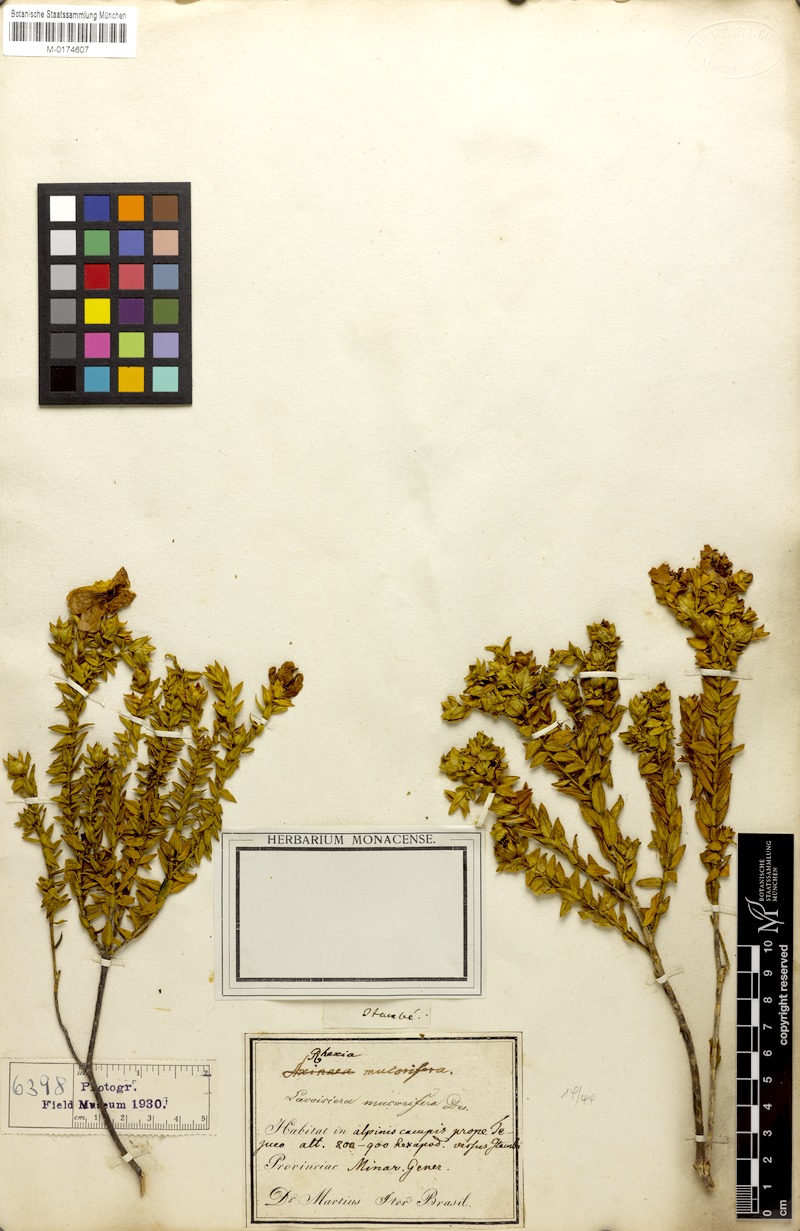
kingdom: Plantae
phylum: Tracheophyta
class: Magnoliopsida
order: Myrtales
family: Melastomataceae
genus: Microlicia
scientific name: Microlicia mucorifera
